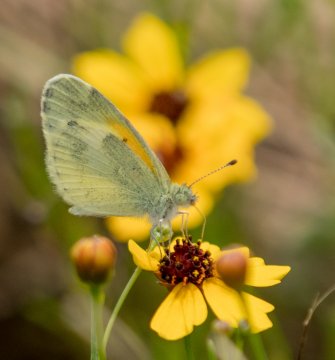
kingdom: Animalia
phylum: Arthropoda
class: Insecta
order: Lepidoptera
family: Pieridae
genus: Nathalis
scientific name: Nathalis iole
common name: Dainty Sulphur
